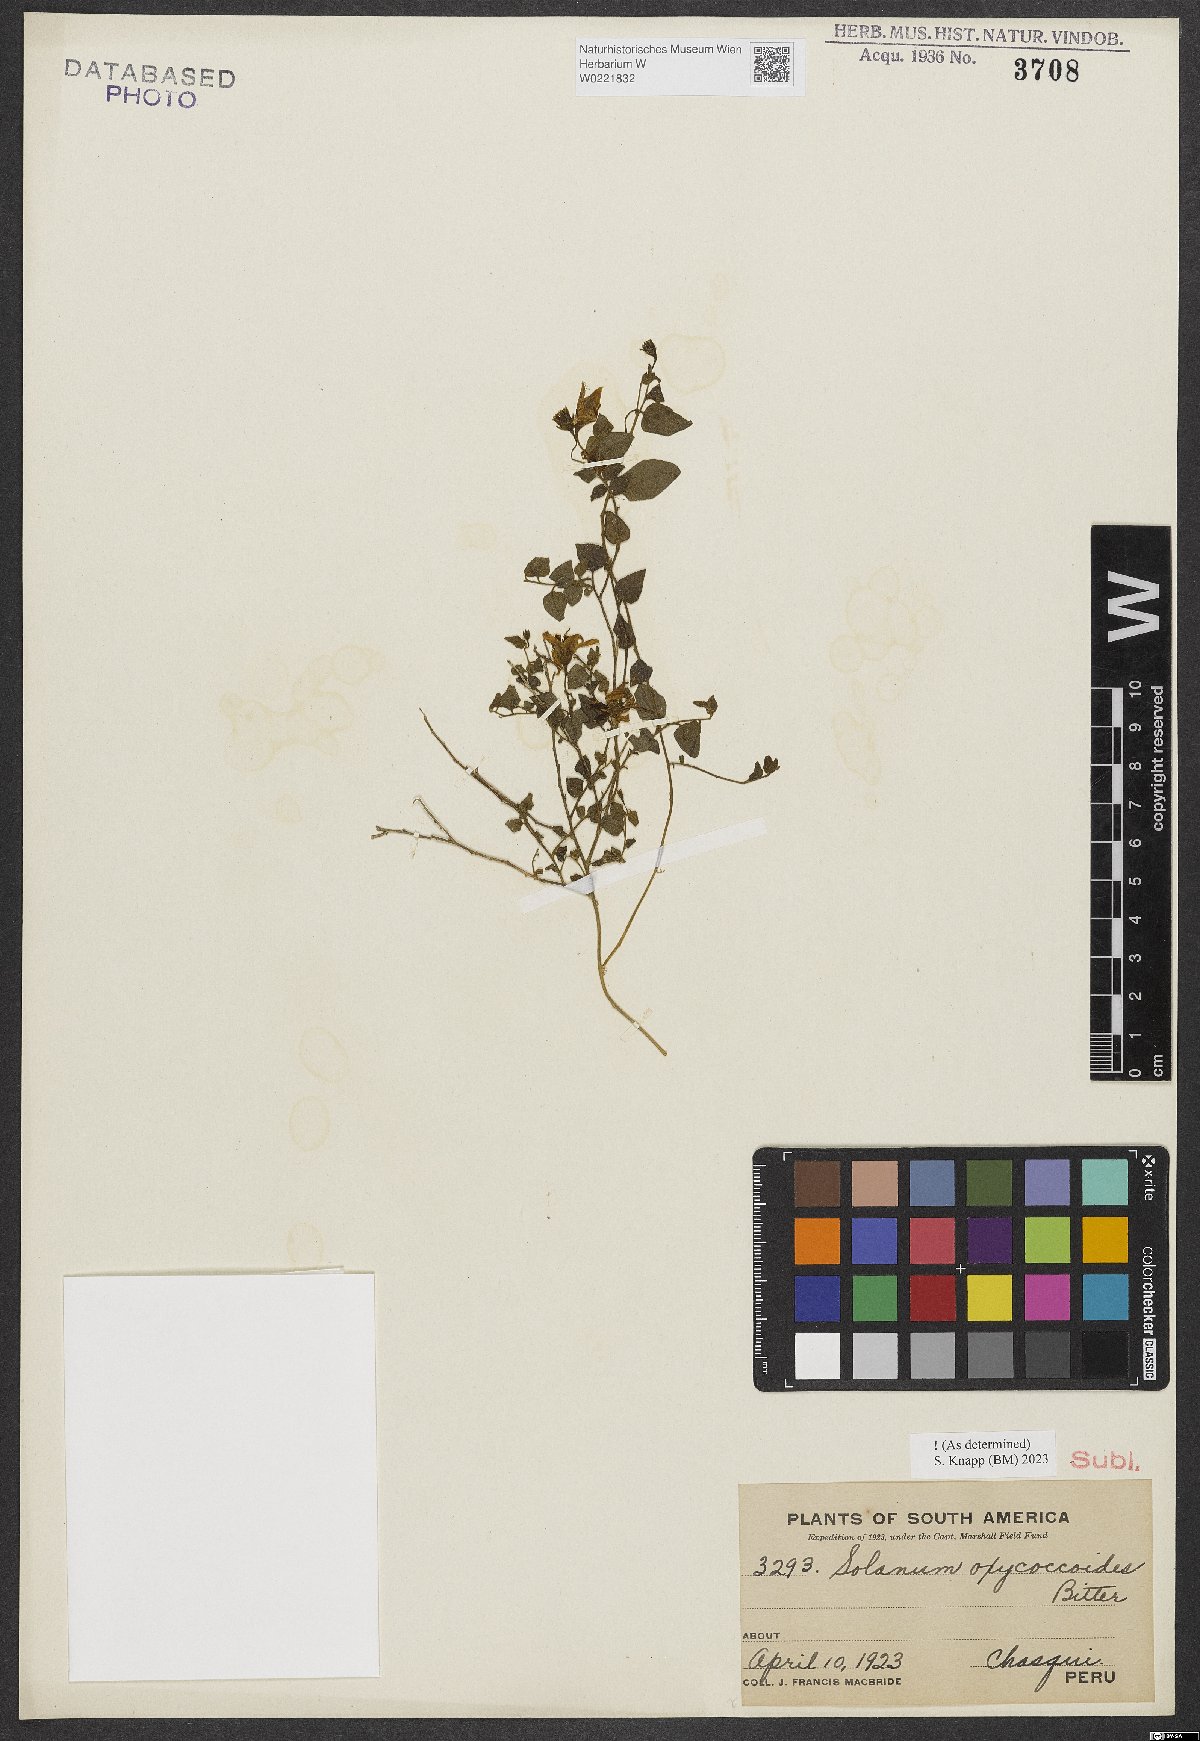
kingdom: Plantae
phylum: Tracheophyta
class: Magnoliopsida
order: Solanales
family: Solanaceae
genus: Solanum
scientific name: Solanum oxycoccoides
